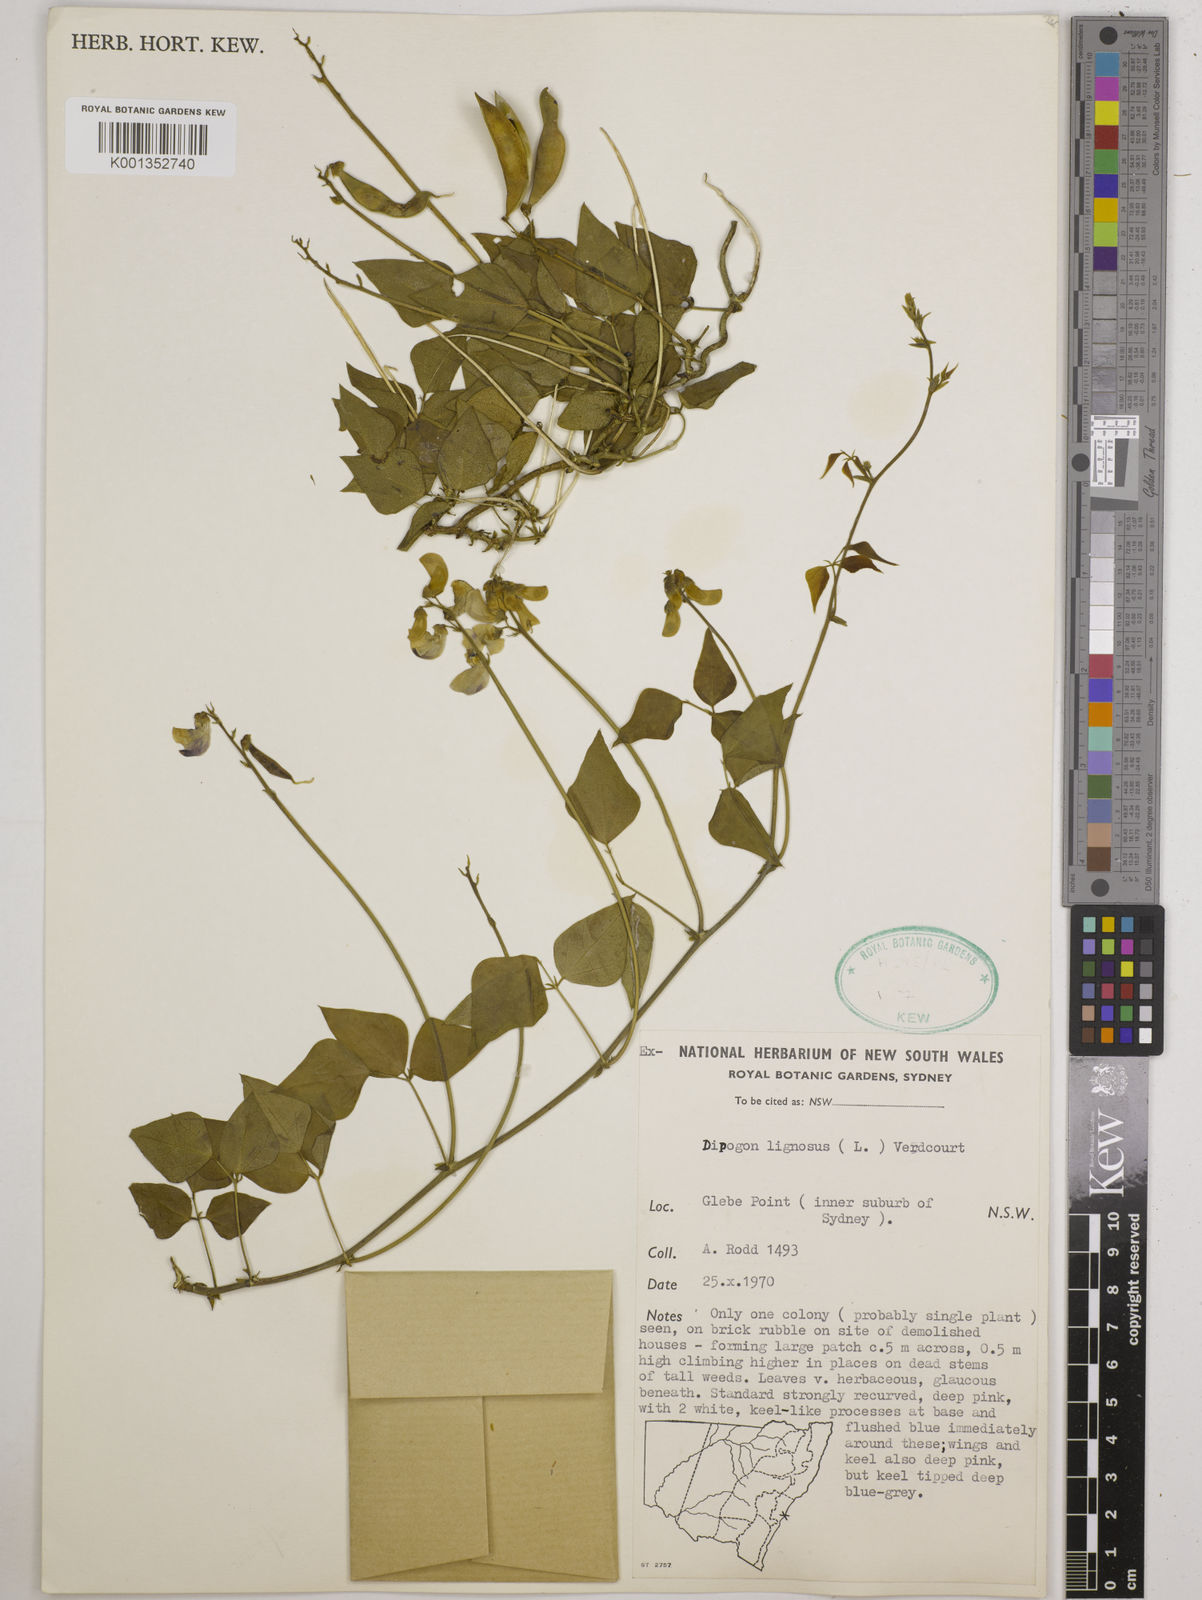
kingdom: Plantae
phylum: Tracheophyta
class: Magnoliopsida
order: Fabales
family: Fabaceae
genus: Dipogon
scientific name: Dipogon lignosus
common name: Okie bean
